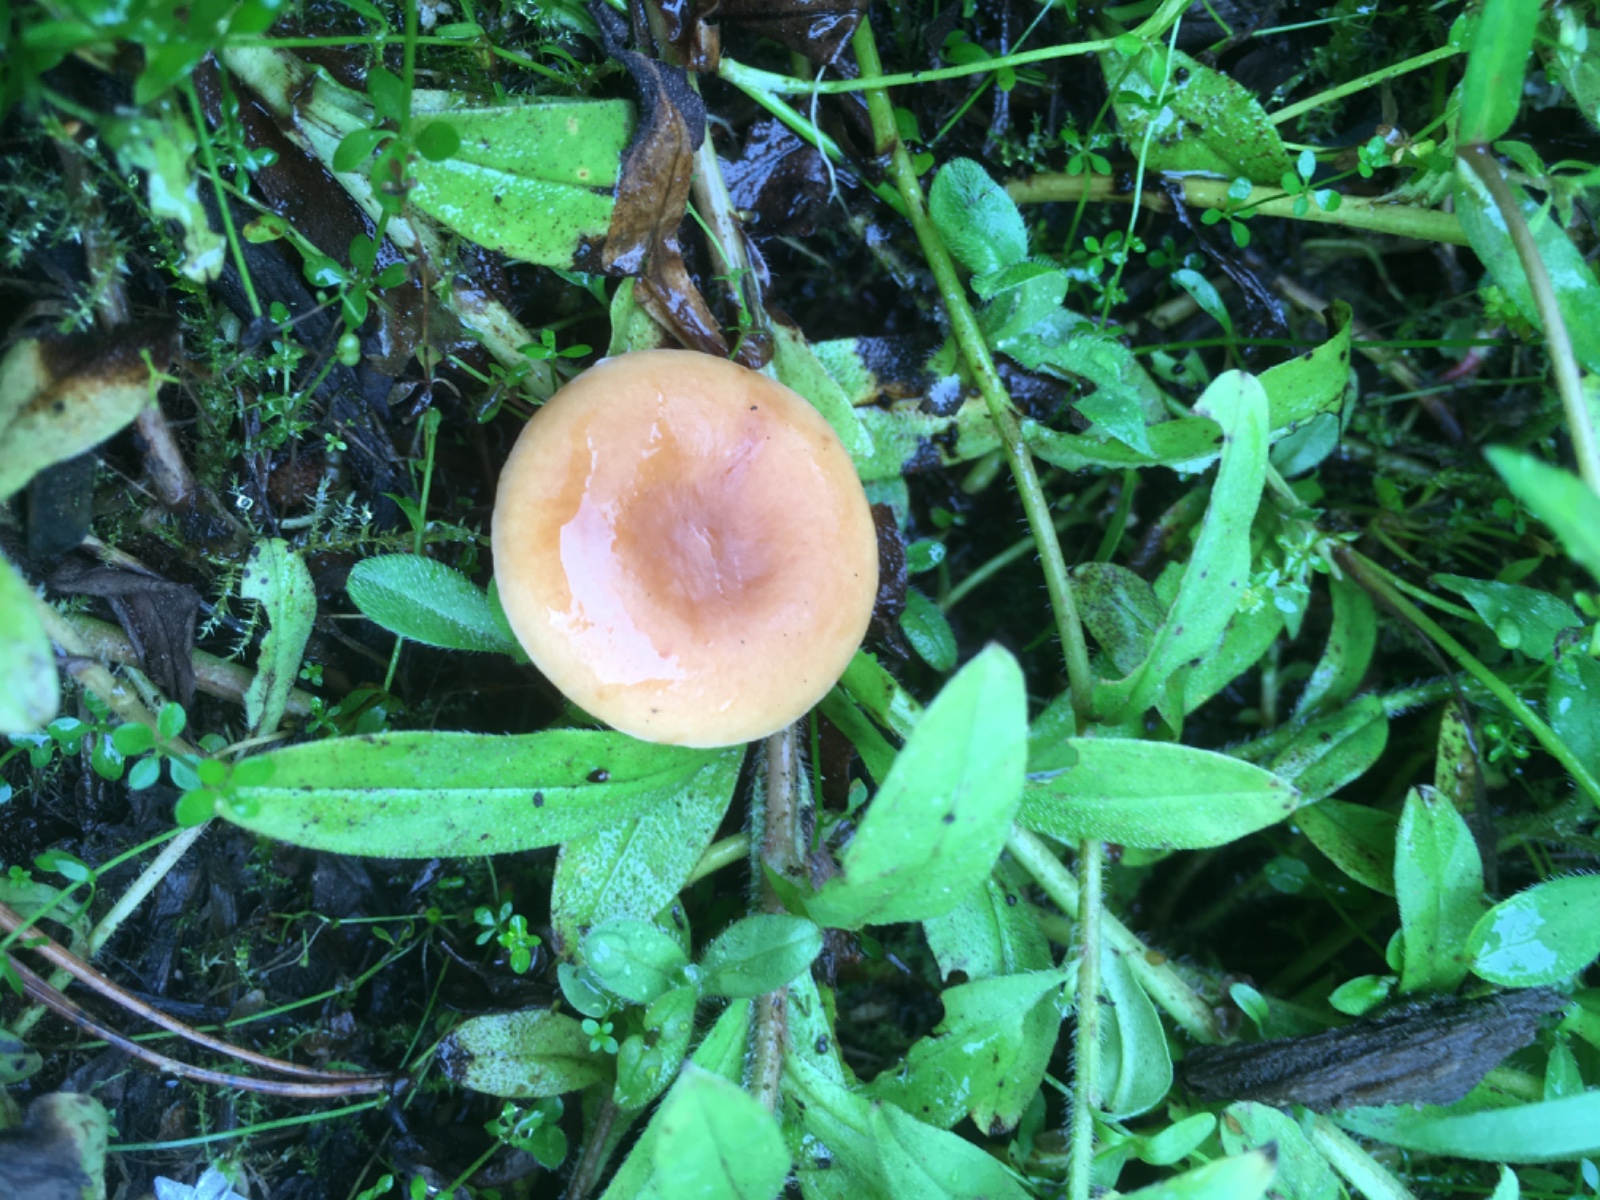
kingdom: Fungi
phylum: Basidiomycota
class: Agaricomycetes
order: Russulales
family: Russulaceae
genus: Lactarius
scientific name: Lactarius
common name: mælkehat
